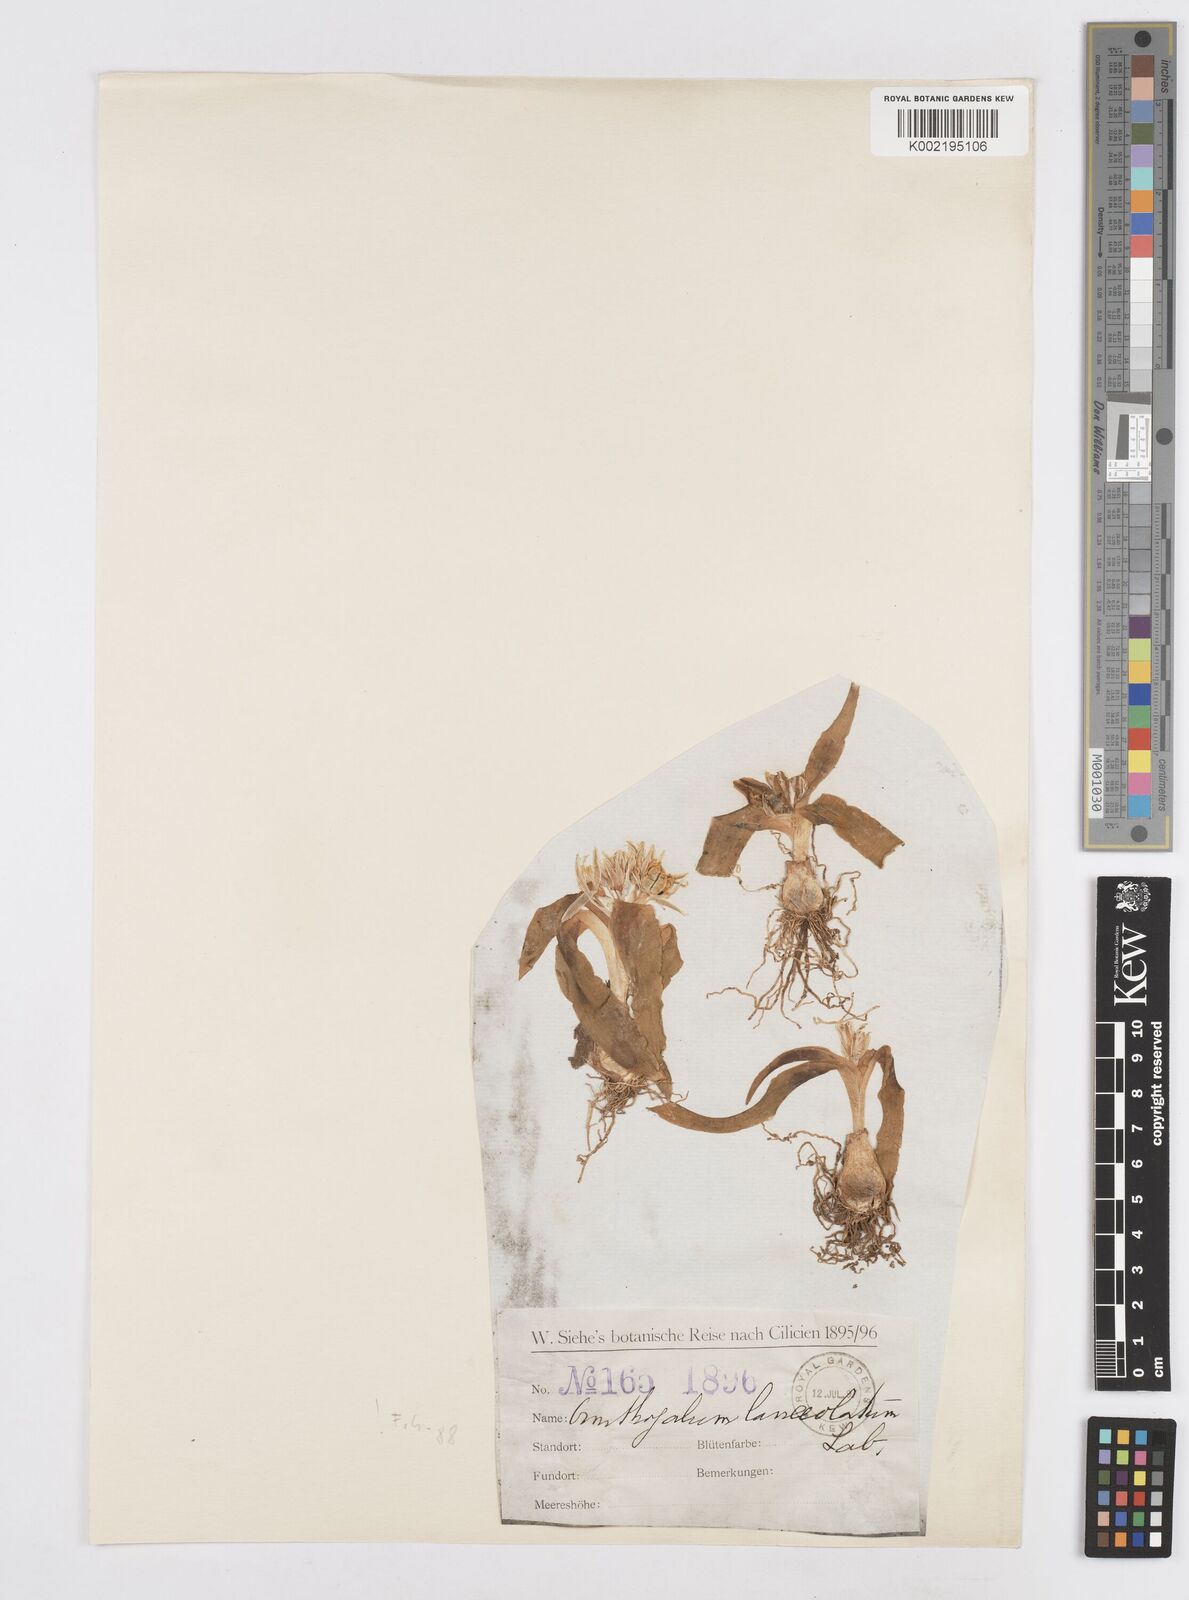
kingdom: Plantae
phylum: Tracheophyta
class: Liliopsida
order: Asparagales
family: Asparagaceae
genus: Ornithogalum
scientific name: Ornithogalum lanceolatum
